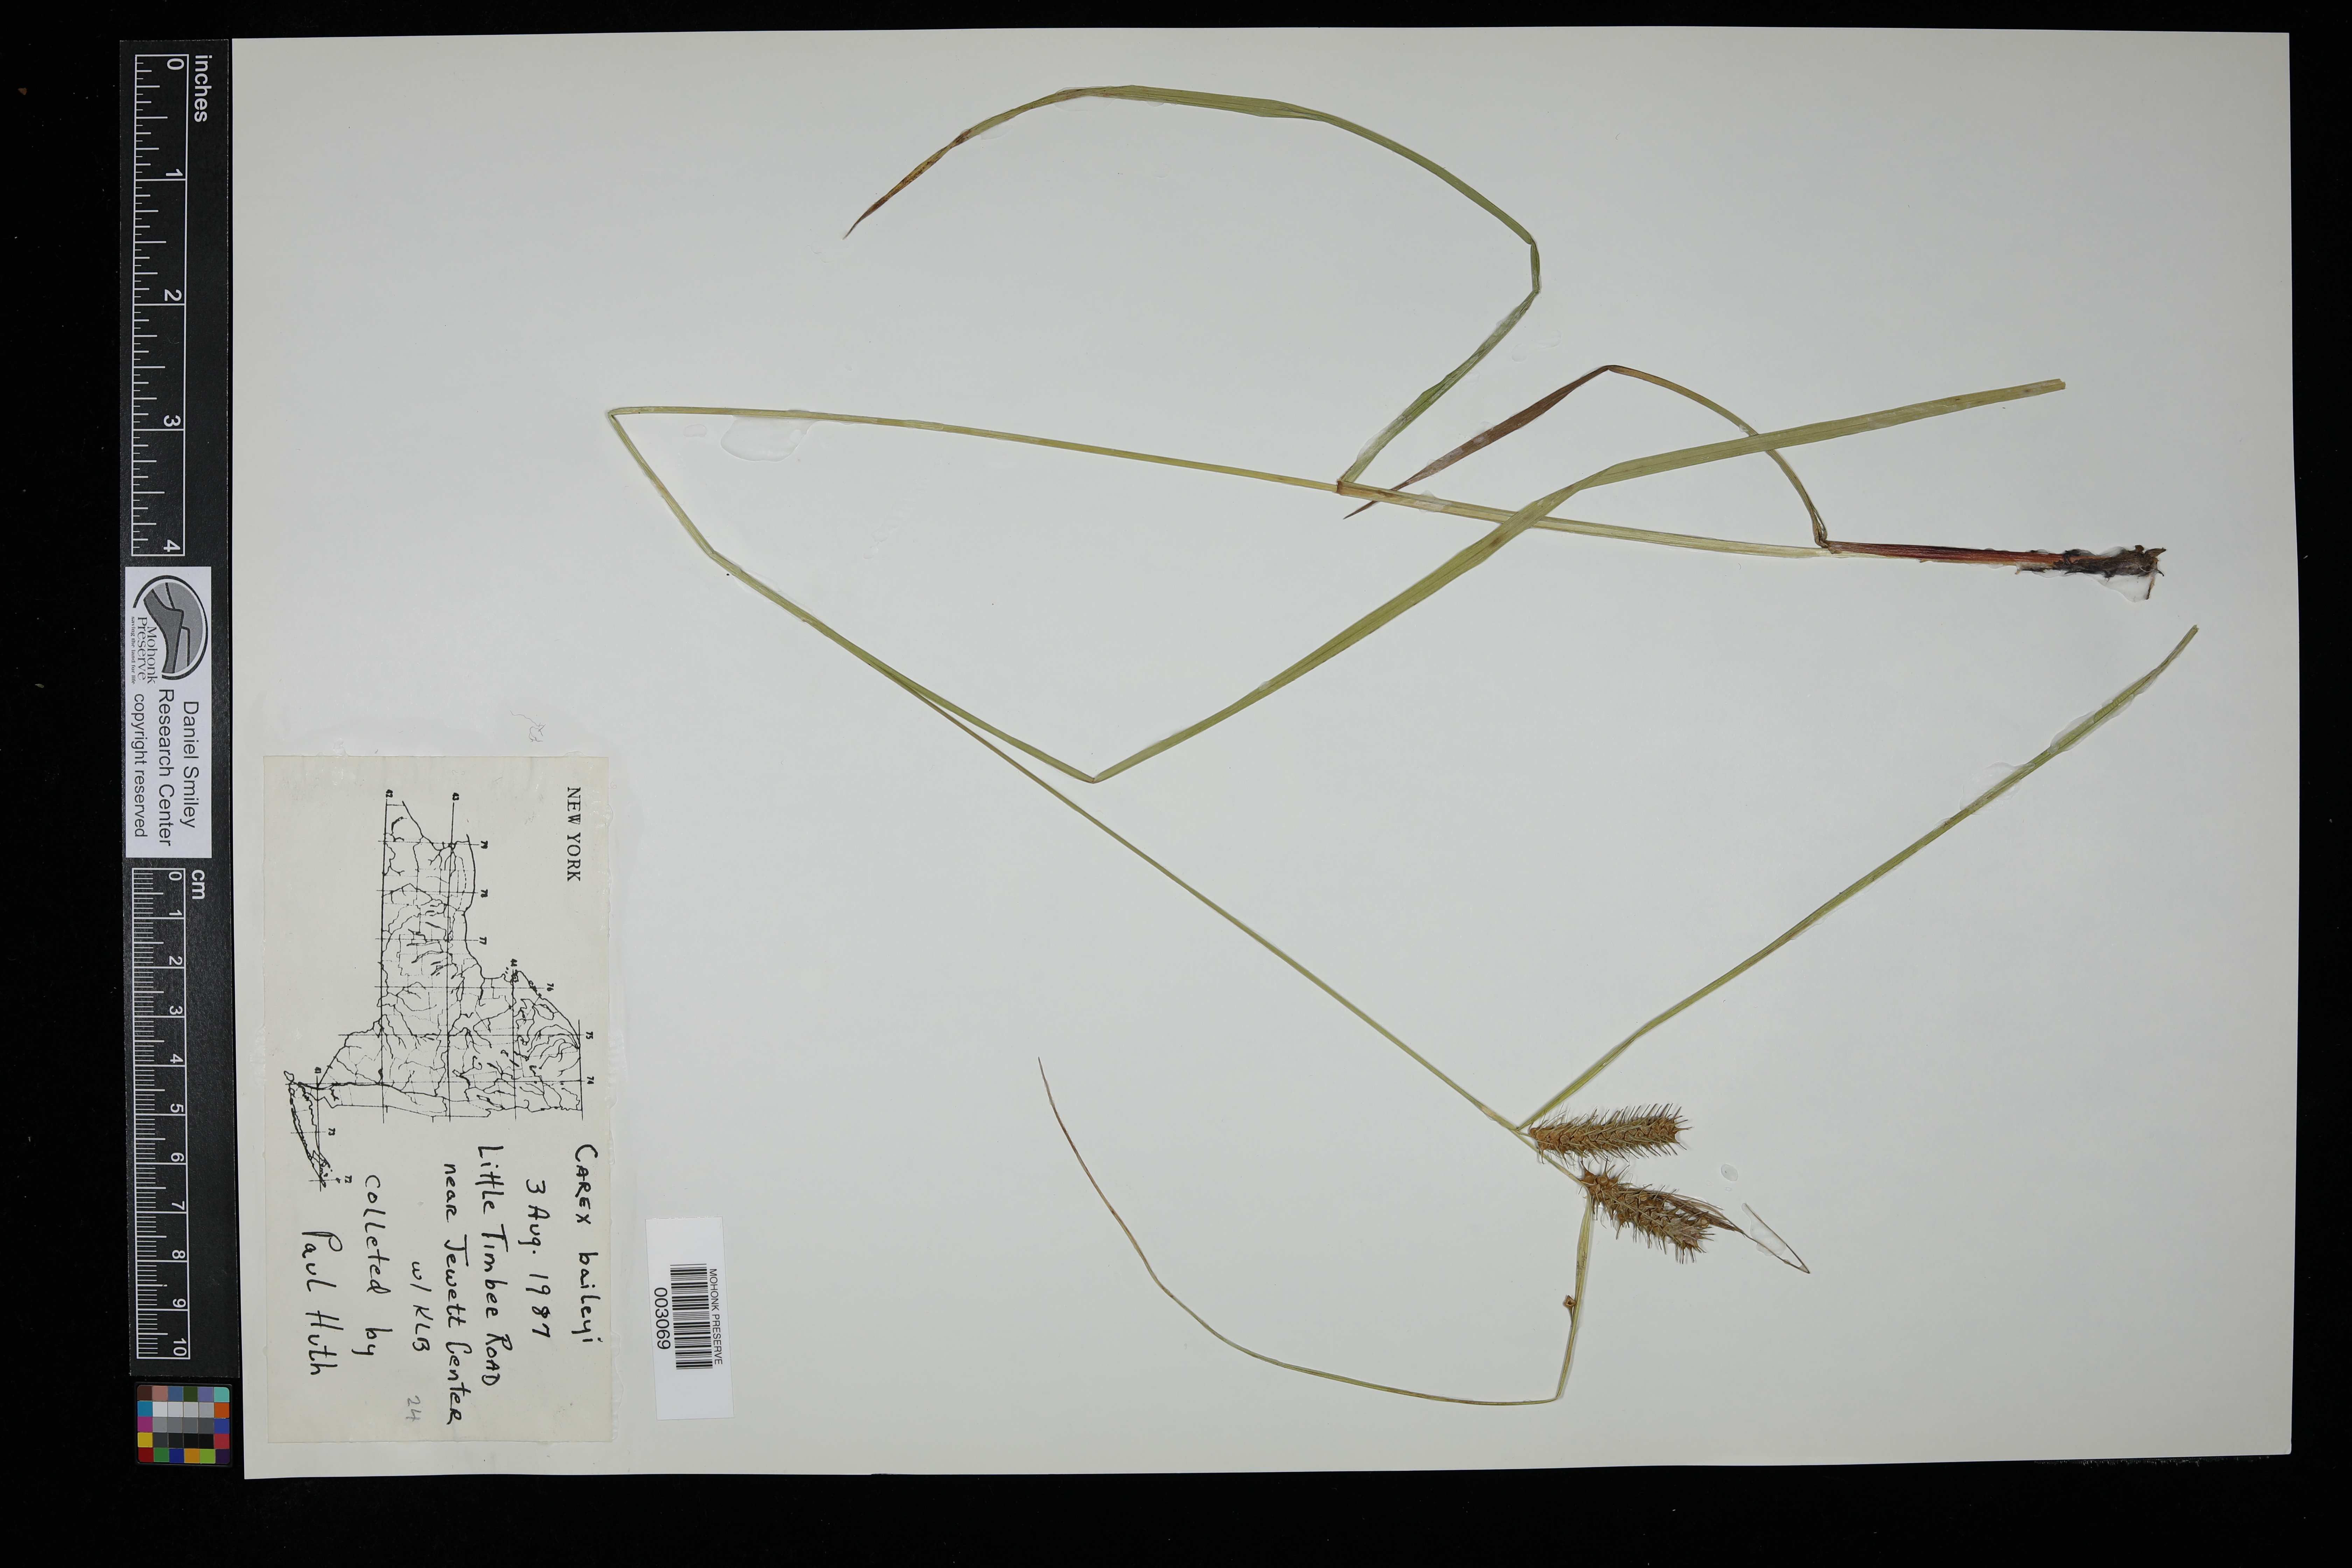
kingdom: Plantae
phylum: Tracheophyta
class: Liliopsida
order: Poales
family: Cyperaceae
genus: Carex
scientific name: Carex baileyi
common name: Bailey's sedge
